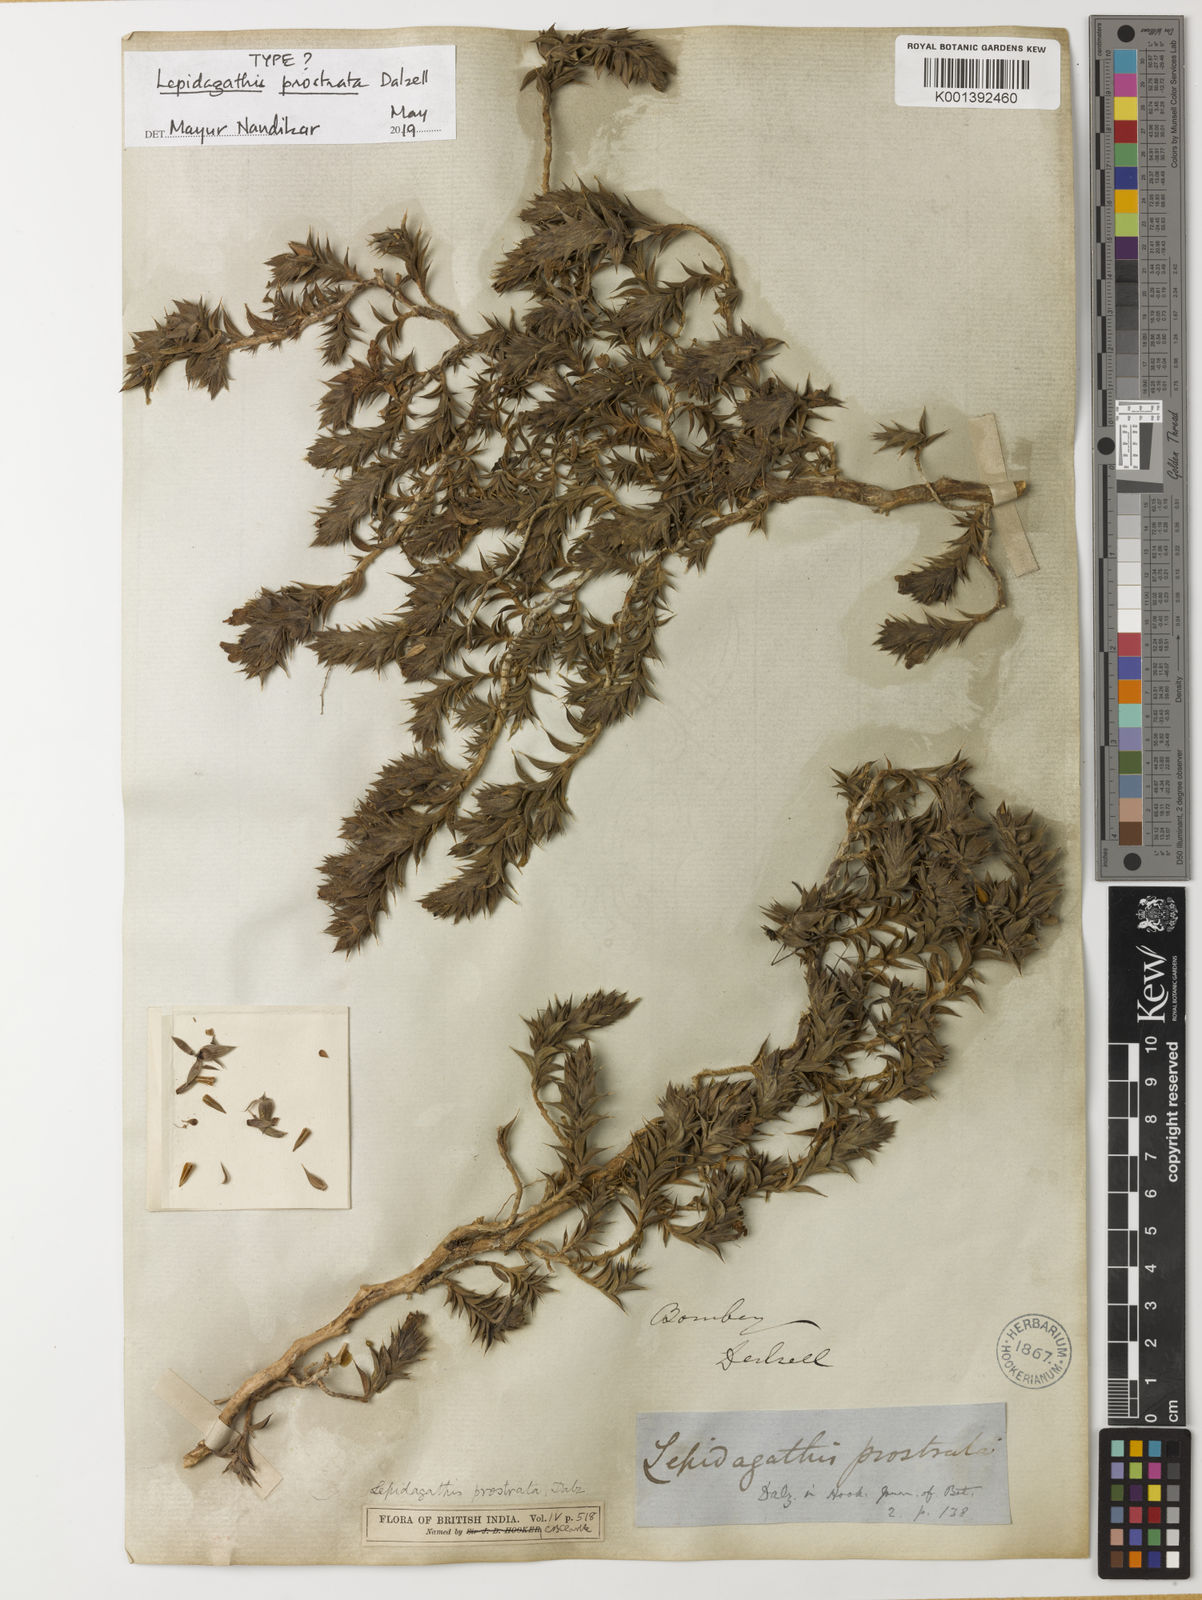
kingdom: Plantae
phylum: Tracheophyta
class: Magnoliopsida
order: Lamiales
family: Acanthaceae
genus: Lepidagathis
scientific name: Lepidagathis prostrata
